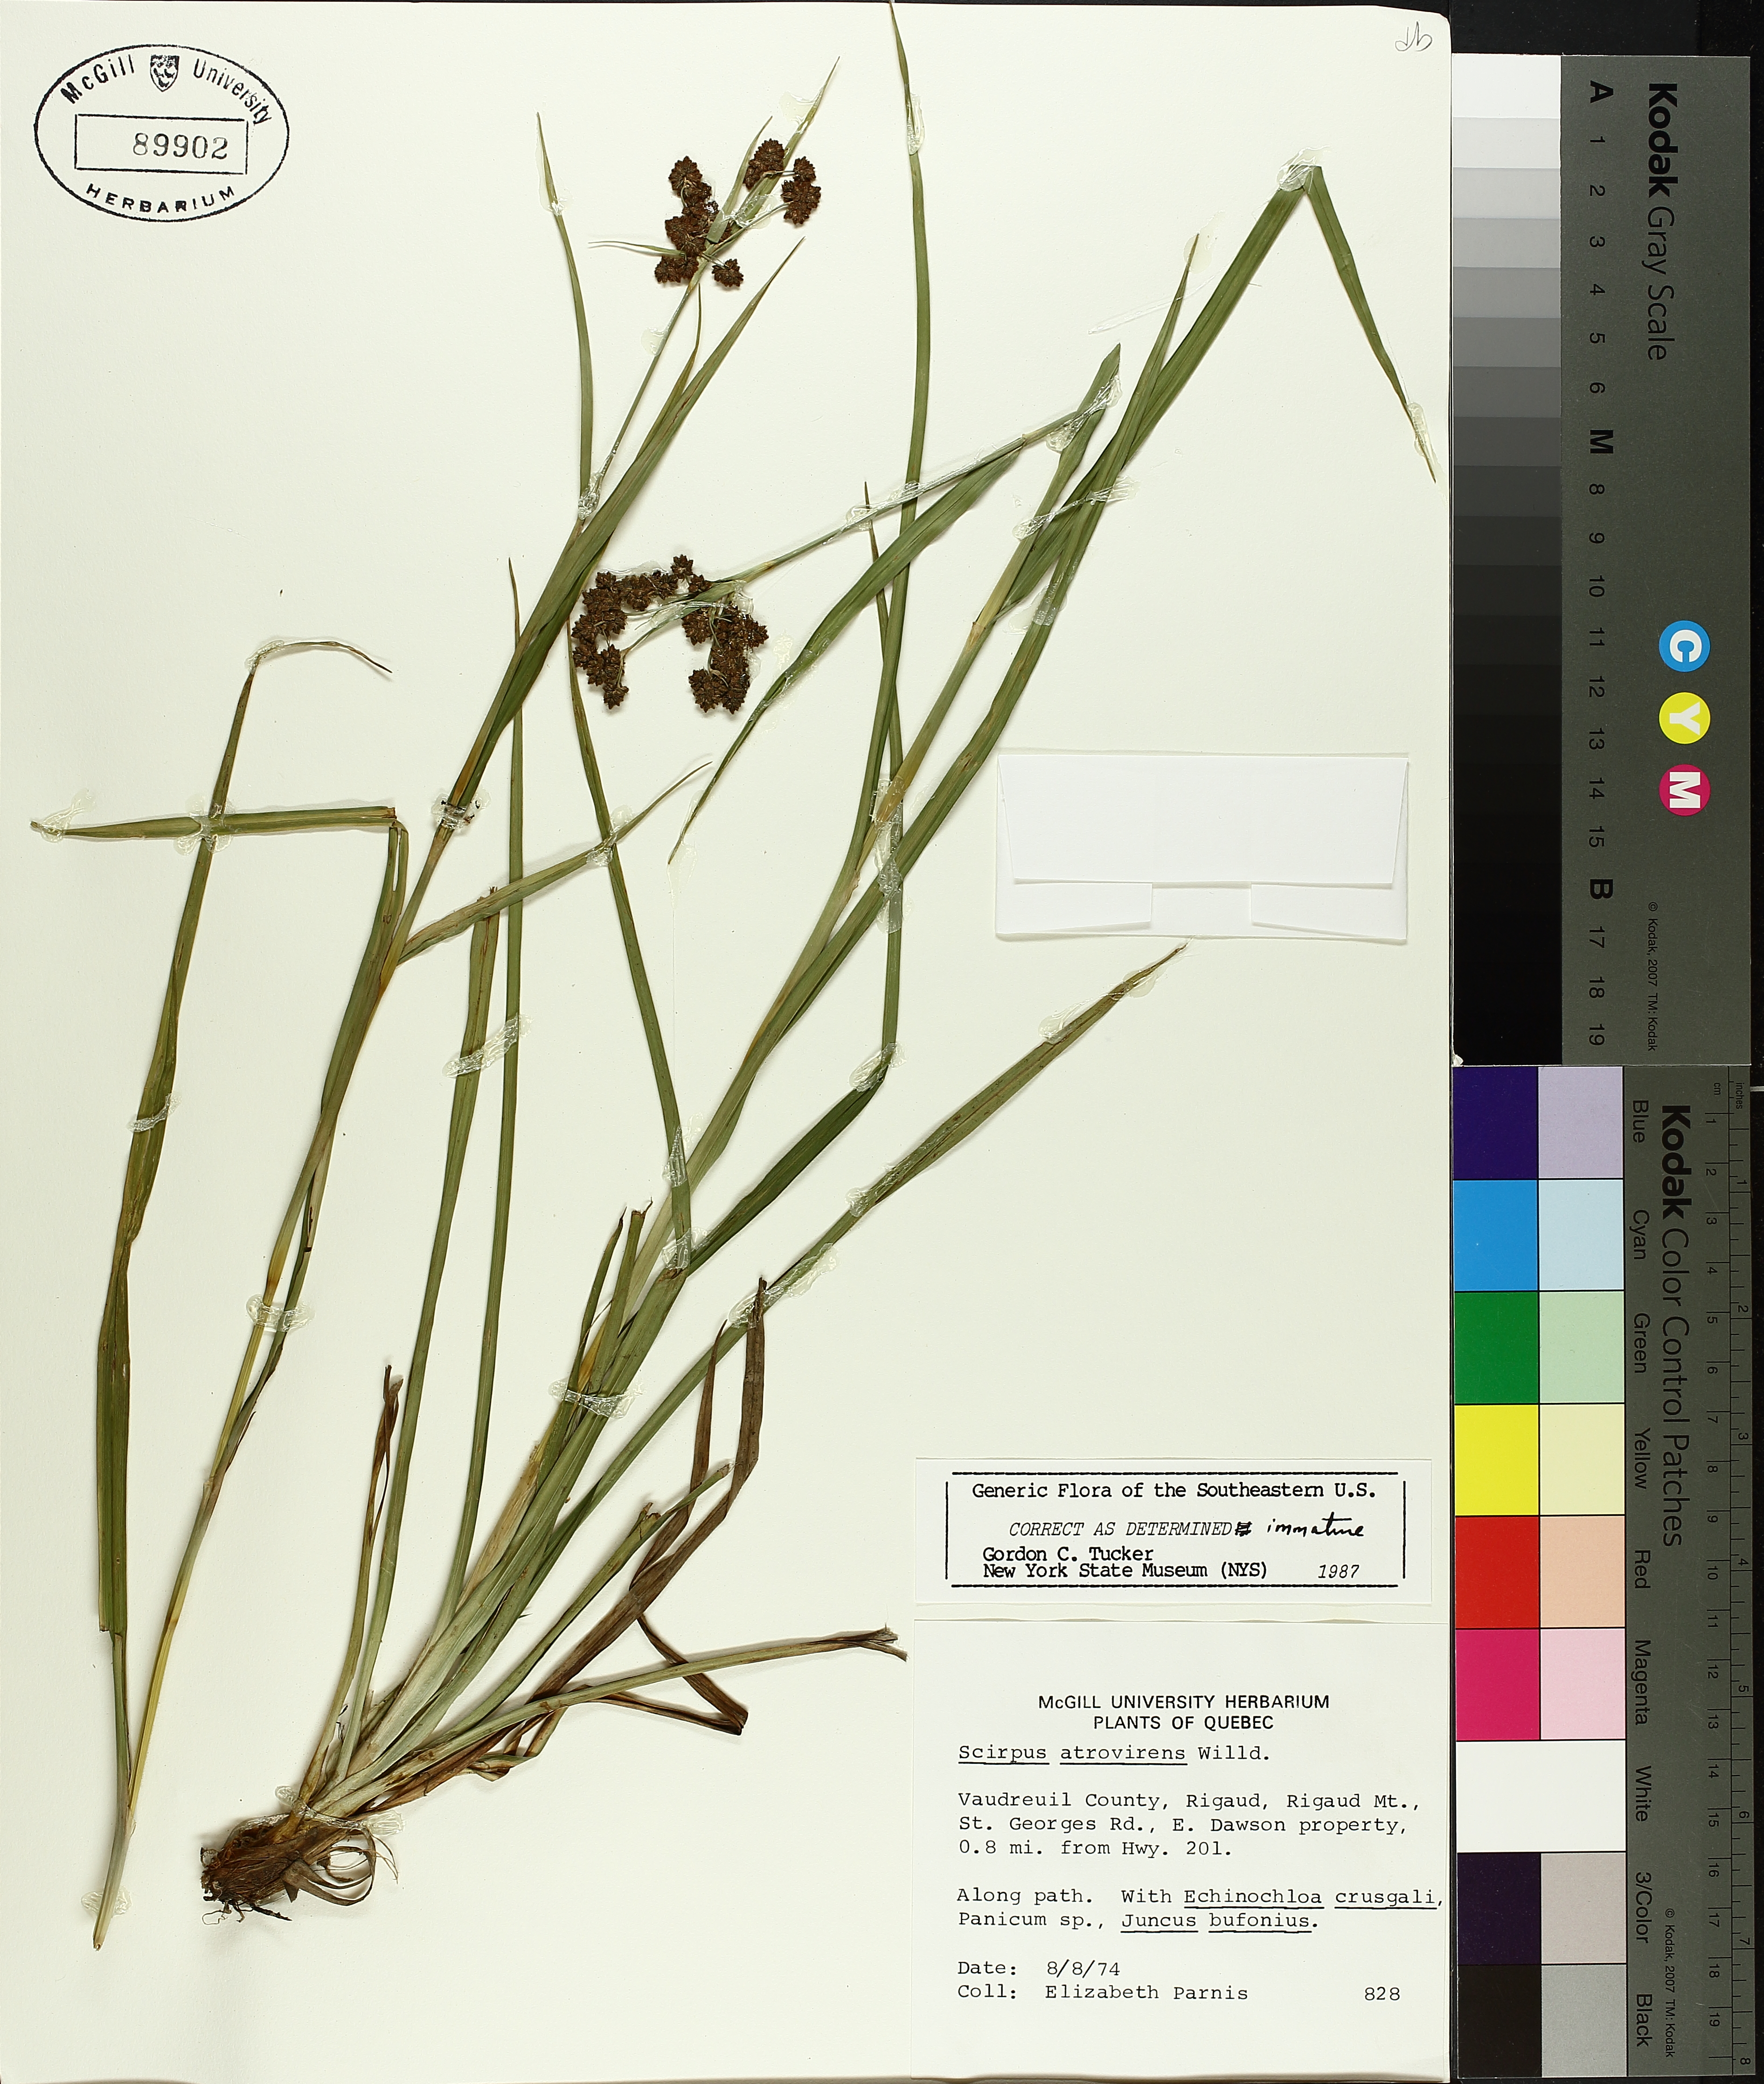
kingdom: Plantae
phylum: Tracheophyta
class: Liliopsida
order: Poales
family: Cyperaceae
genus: Scirpus
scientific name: Scirpus atrovirens
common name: Black bulrush
